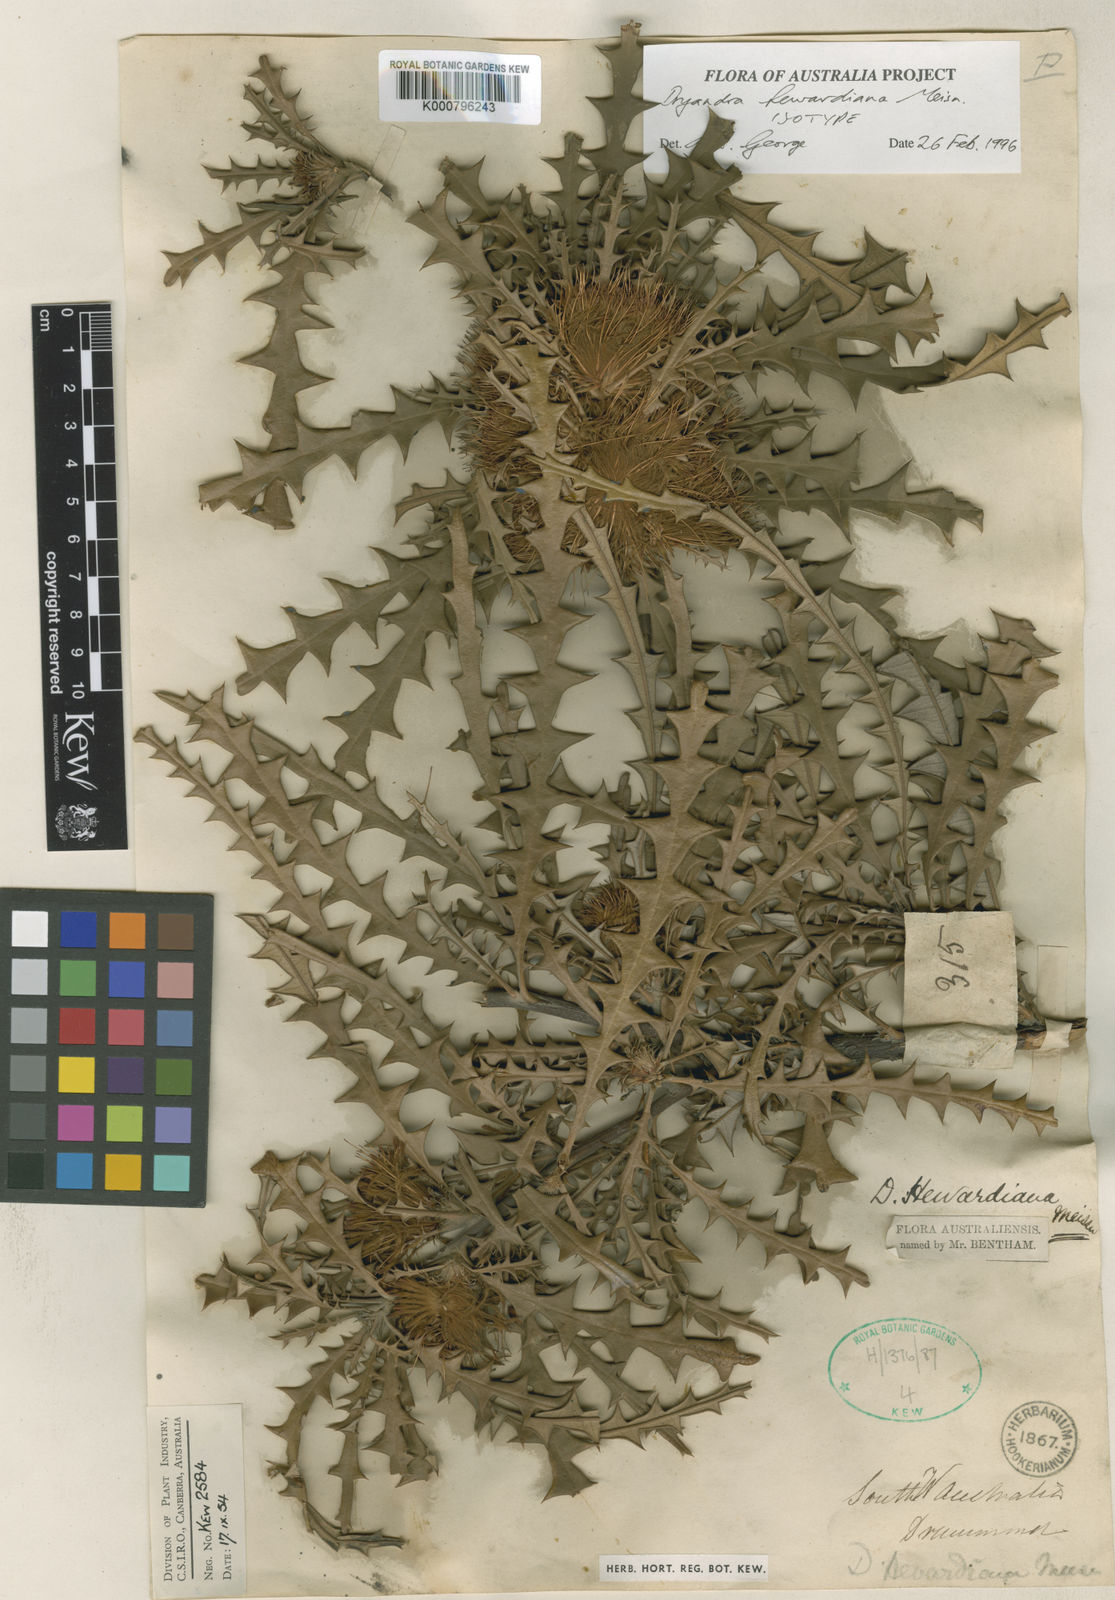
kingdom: Plantae
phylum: Tracheophyta
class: Magnoliopsida
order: Proteales
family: Proteaceae
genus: Banksia
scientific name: Banksia hewardiana
